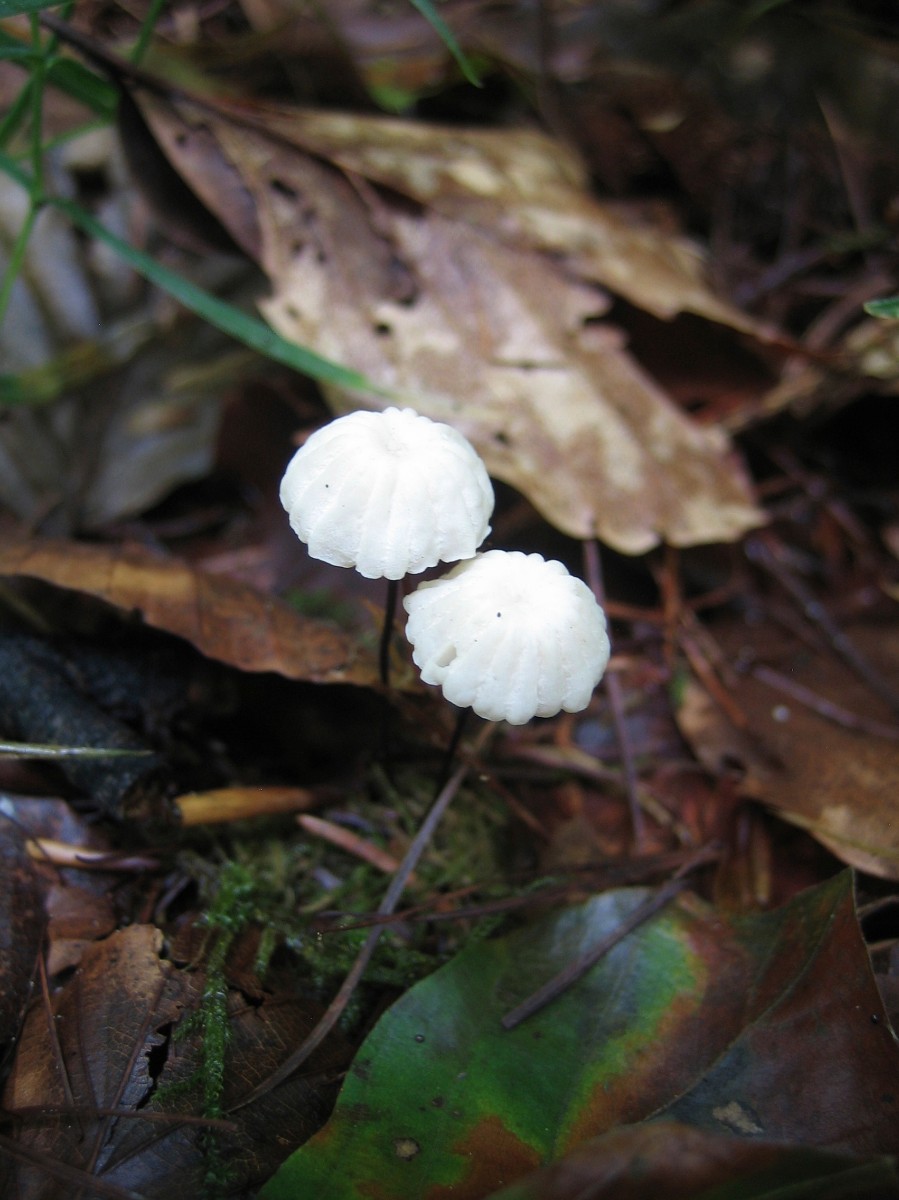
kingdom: Fungi
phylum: Basidiomycota
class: Agaricomycetes
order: Agaricales
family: Marasmiaceae
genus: Marasmius
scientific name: Marasmius rotula
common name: hjul-bruskhat
